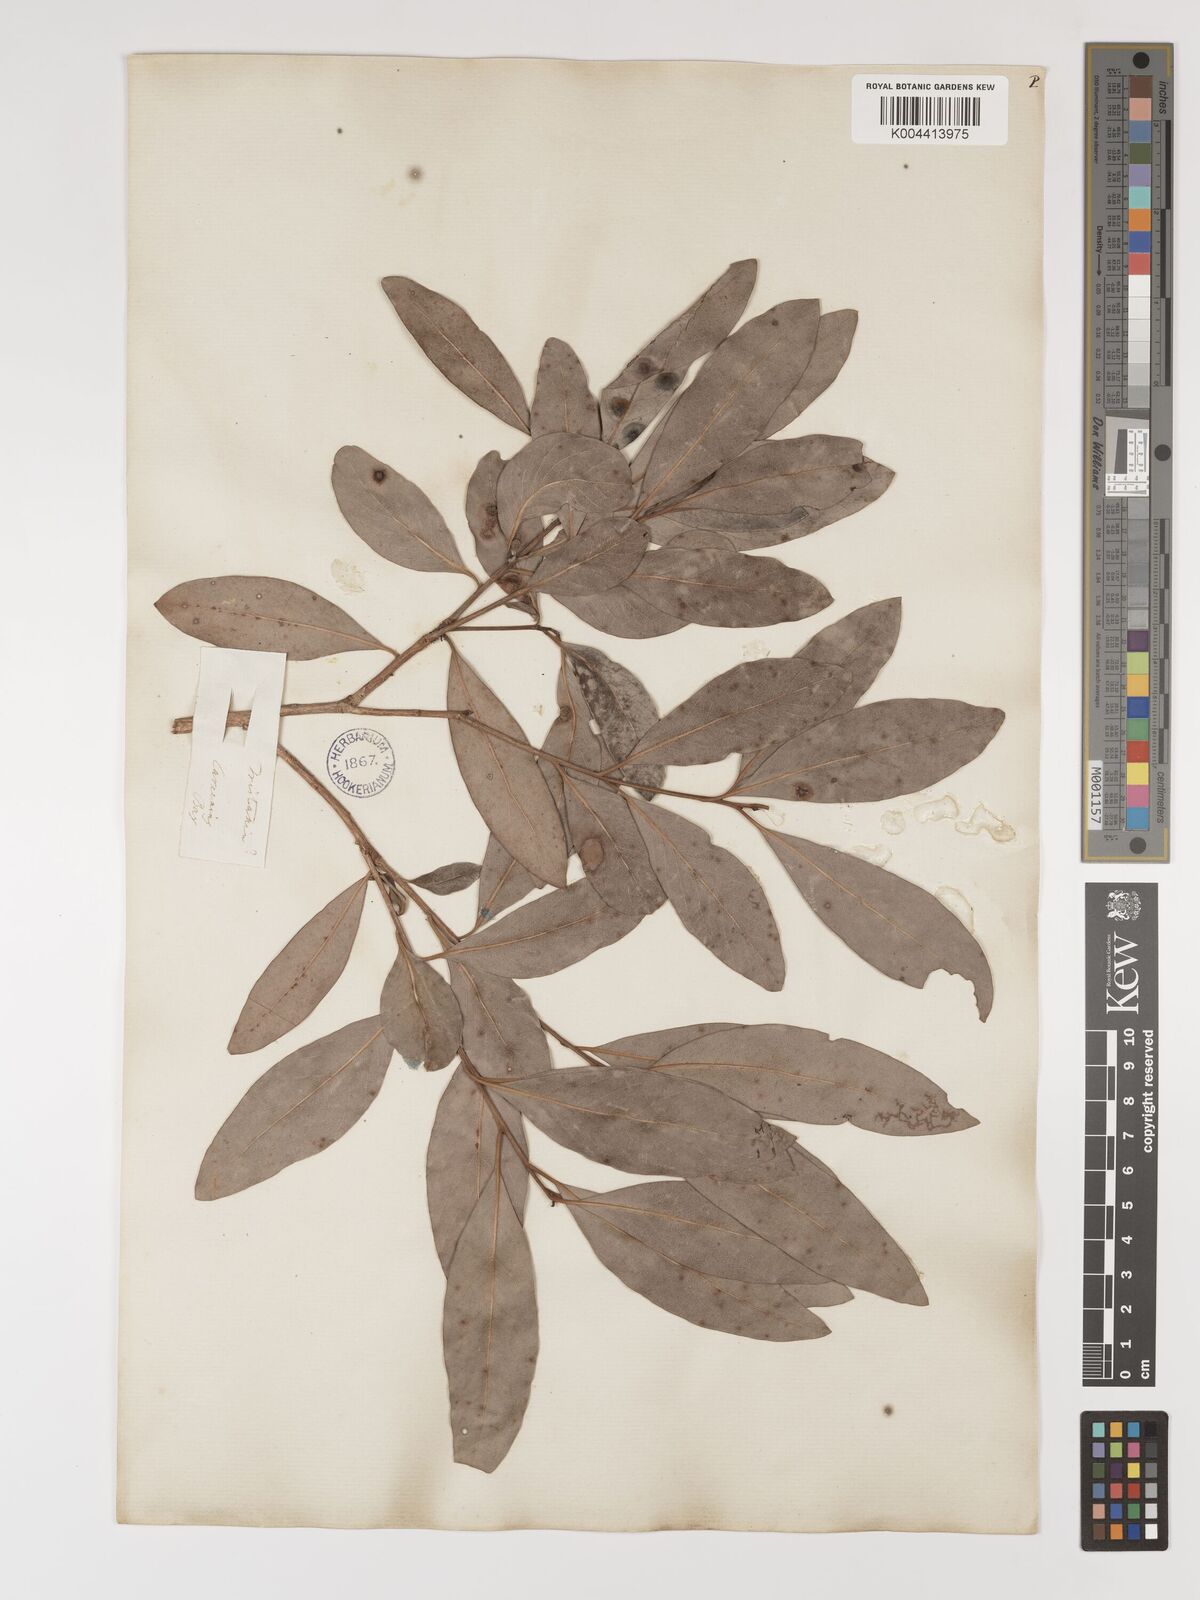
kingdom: Plantae
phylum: Tracheophyta
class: Magnoliopsida
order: Myrtales
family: Myrtaceae
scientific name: Myrtaceae
